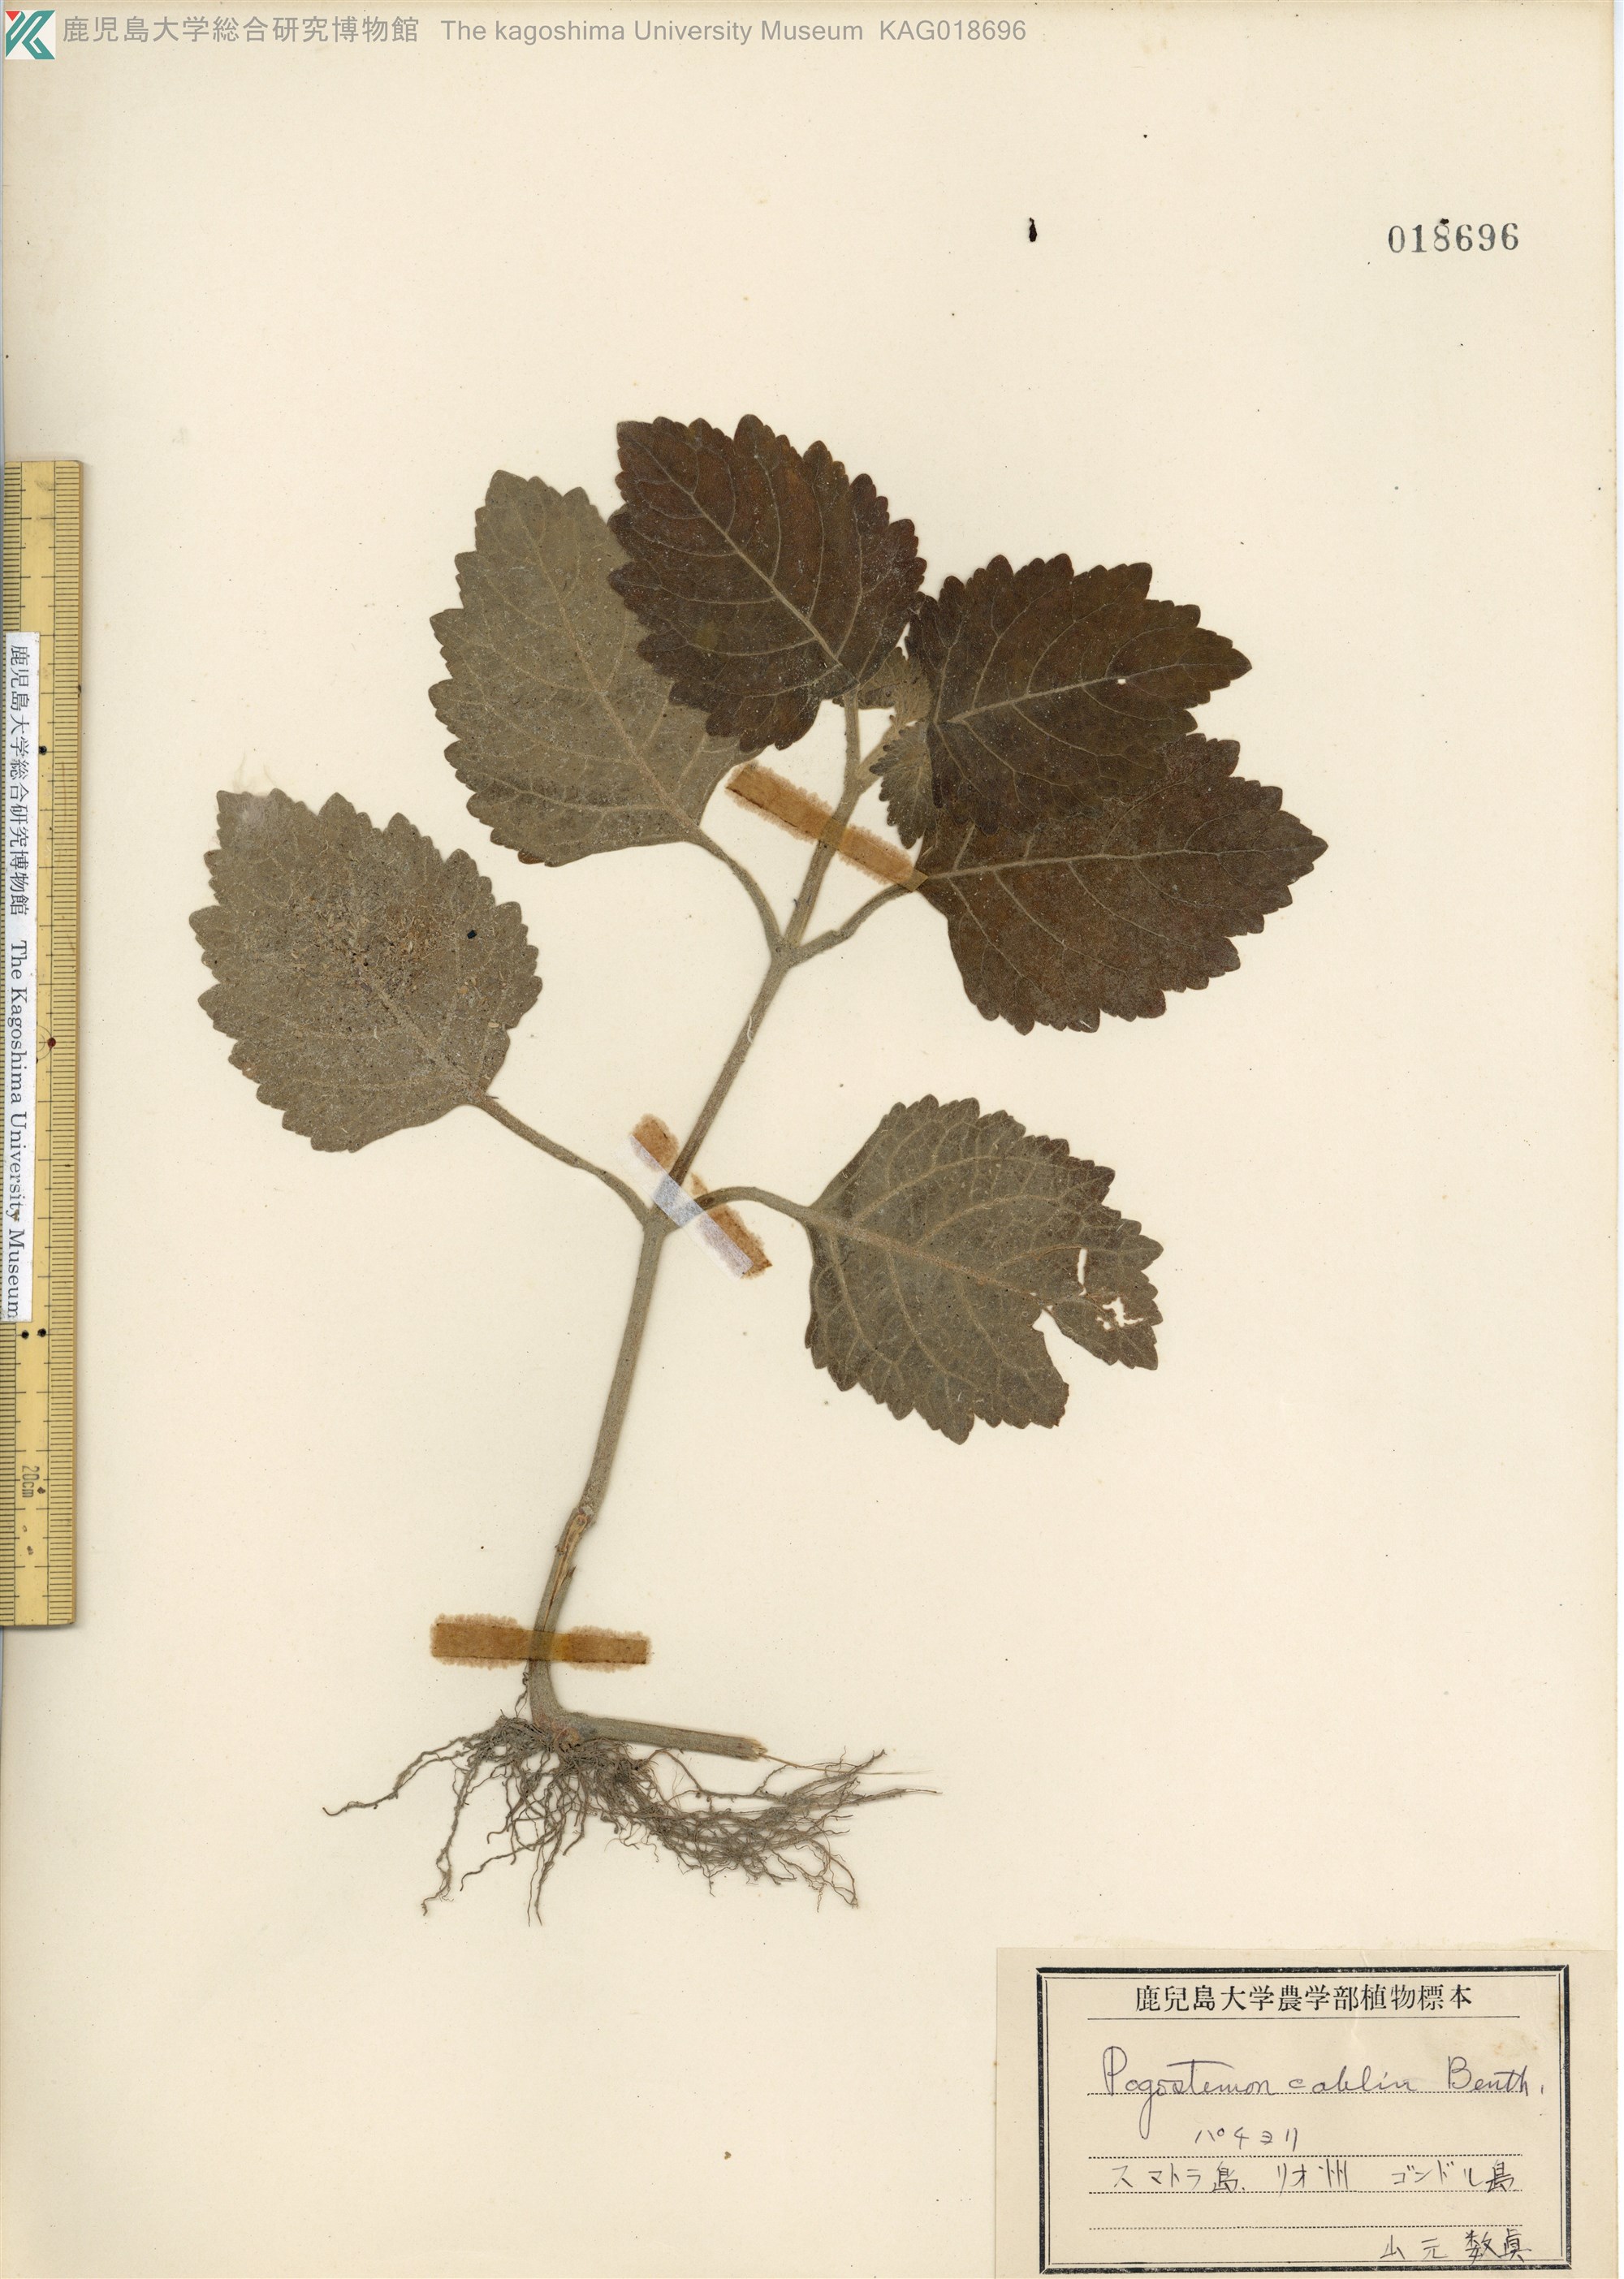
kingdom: Plantae
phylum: Tracheophyta
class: Magnoliopsida
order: Lamiales
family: Lamiaceae
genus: Pogostemon
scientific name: Pogostemon cablin
